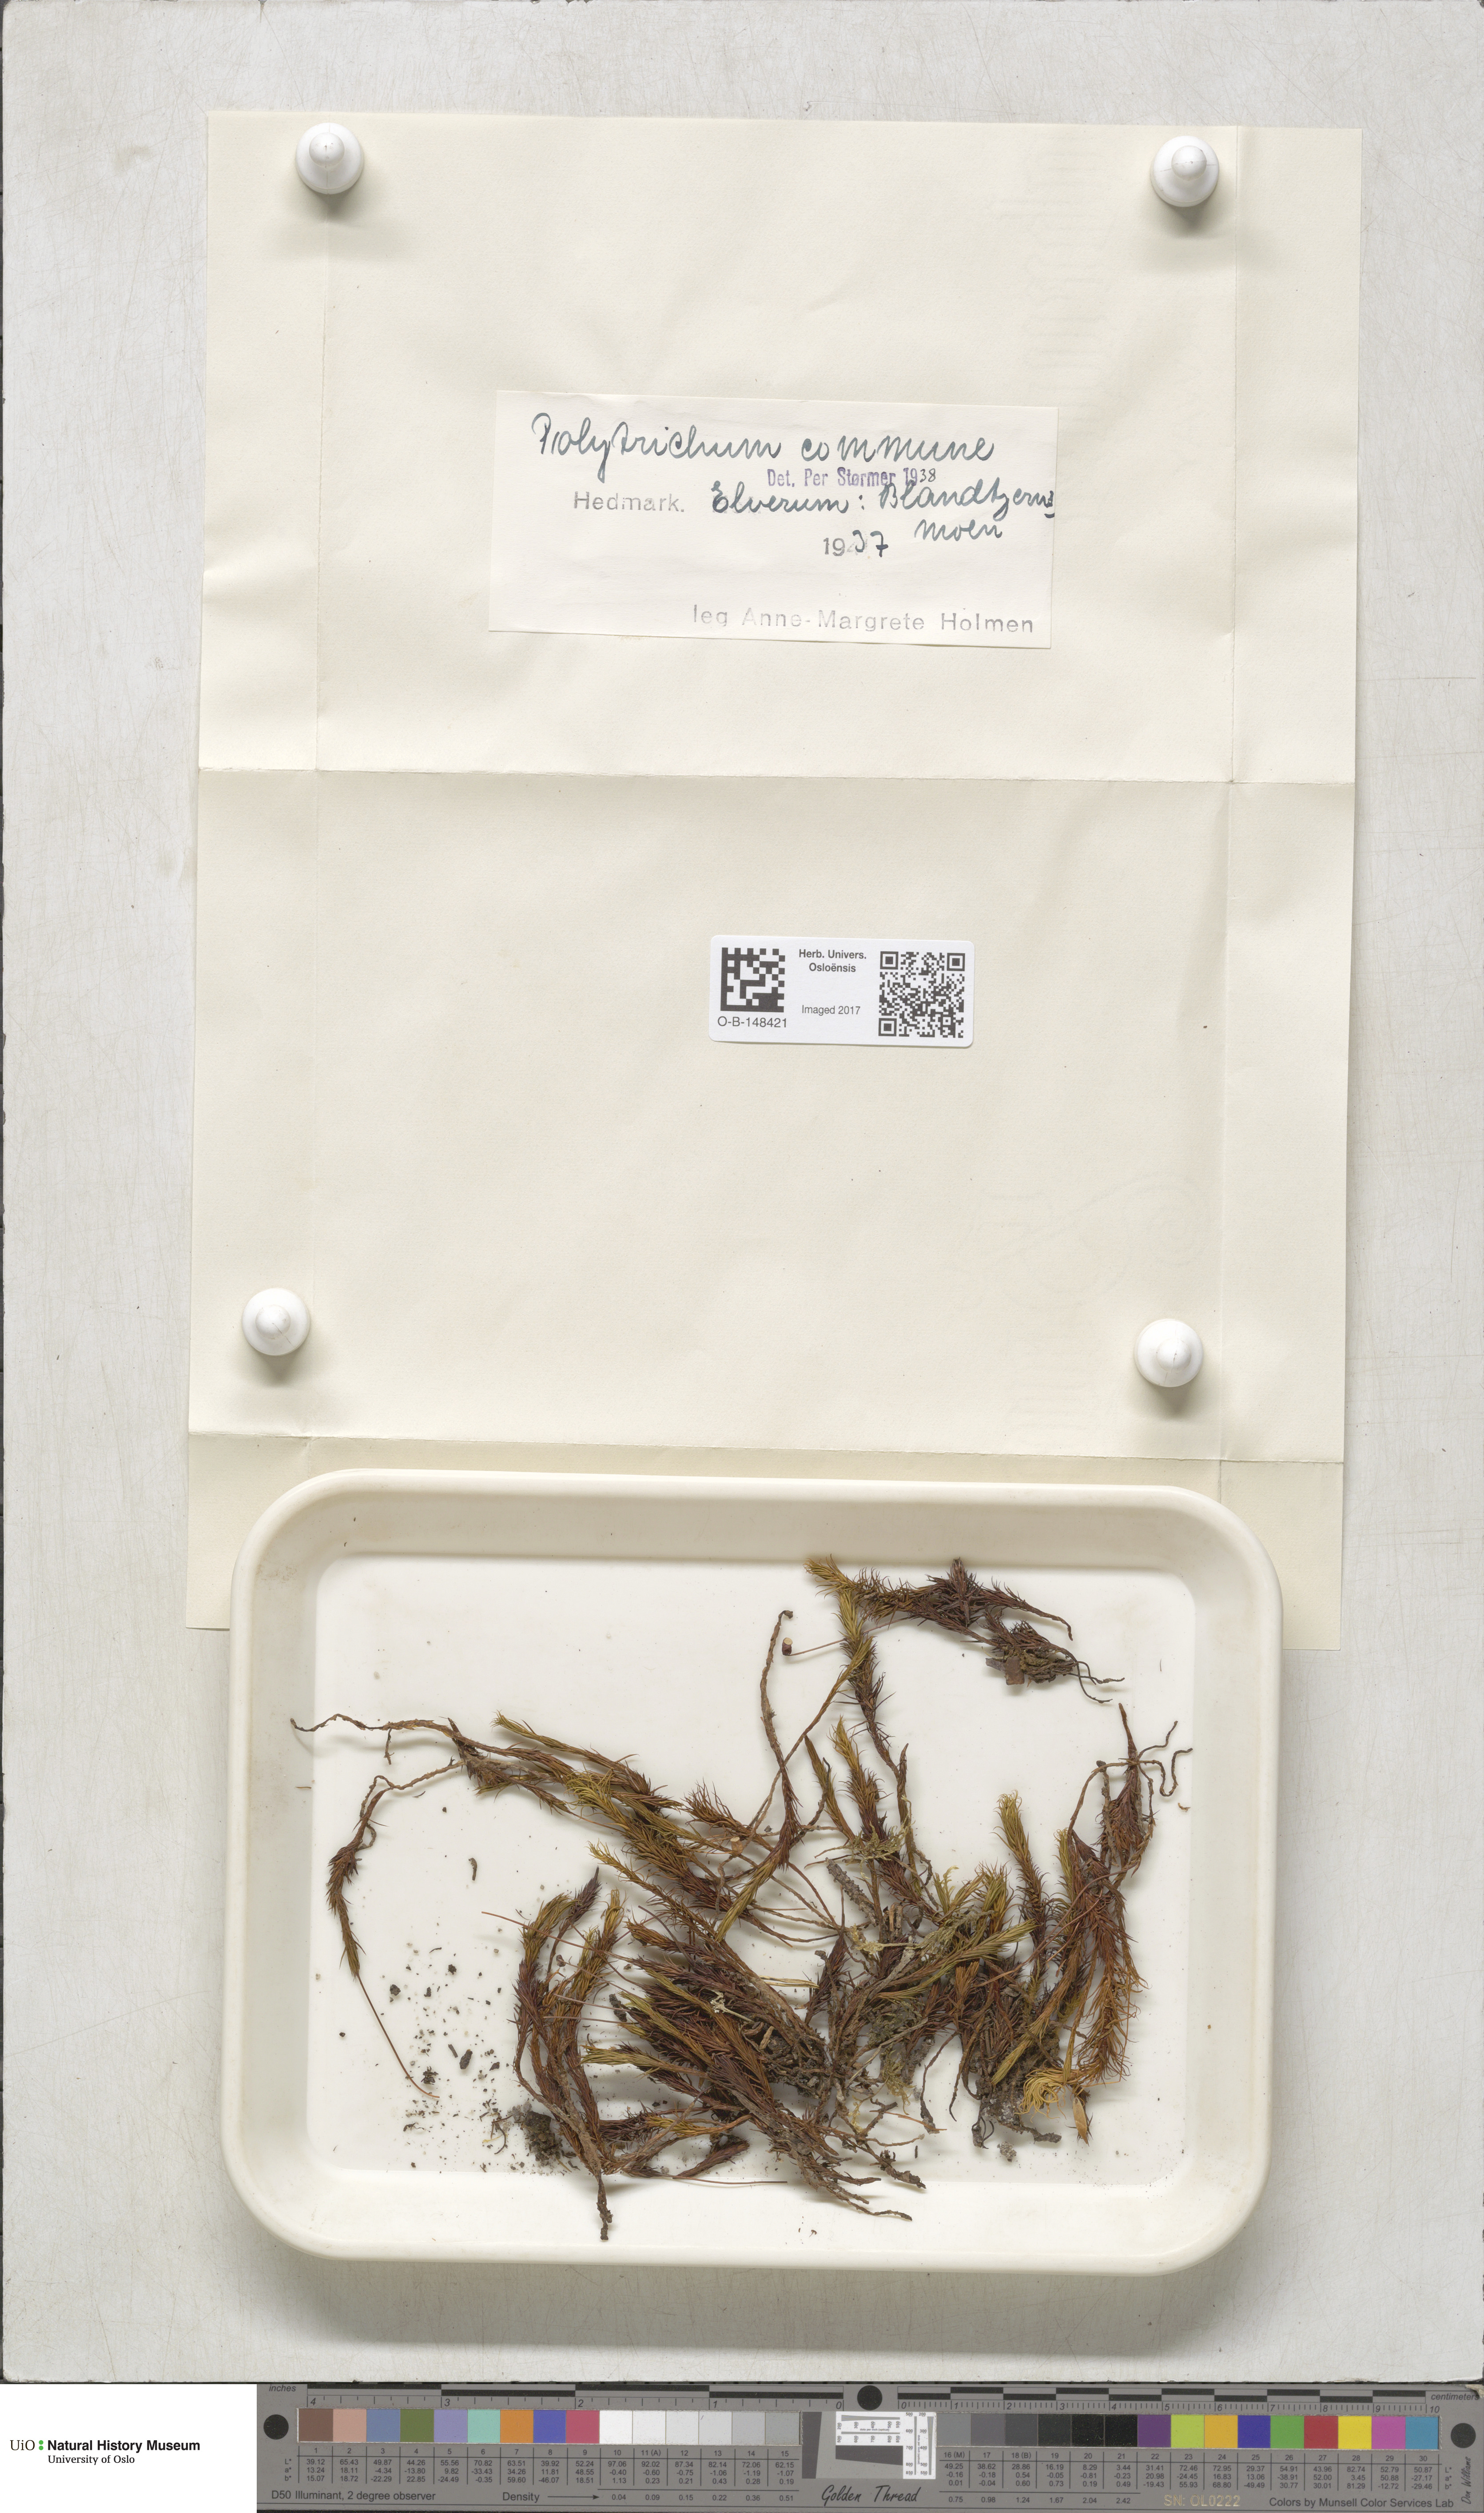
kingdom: Plantae
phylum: Bryophyta
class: Polytrichopsida
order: Polytrichales
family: Polytrichaceae
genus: Polytrichum
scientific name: Polytrichum commune
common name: Common haircap
